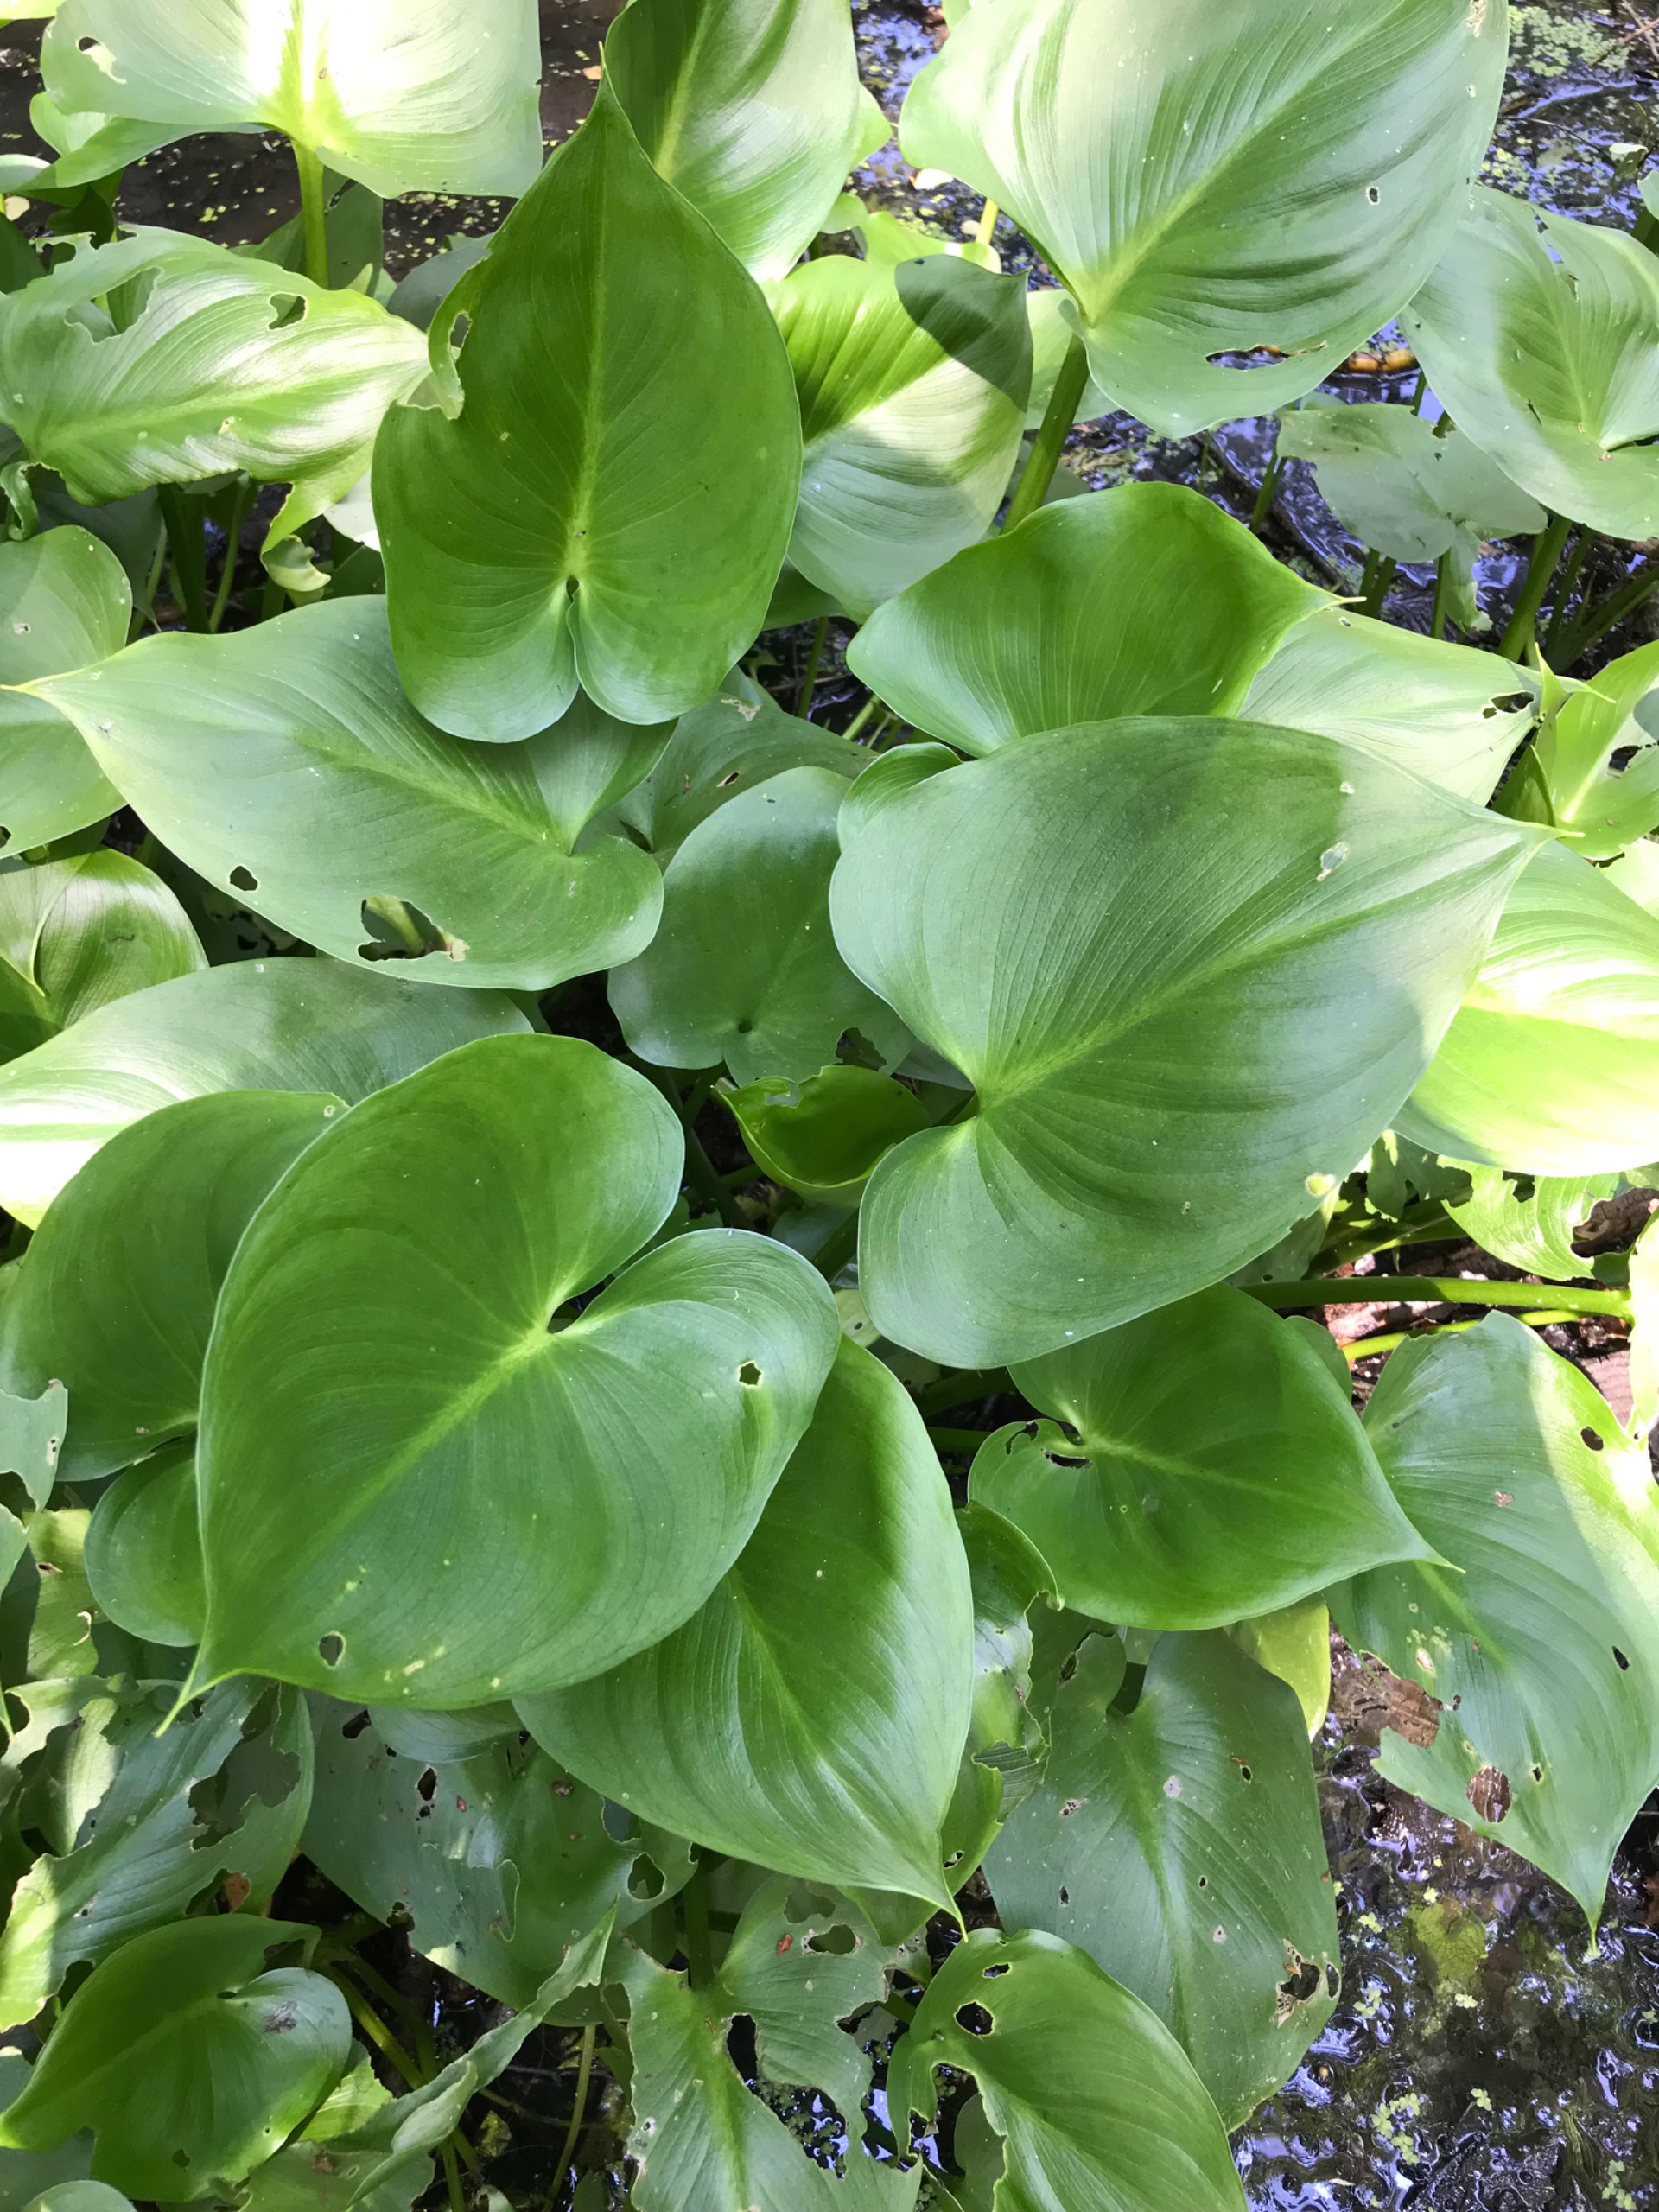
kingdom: Plantae
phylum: Tracheophyta
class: Liliopsida
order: Alismatales
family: Araceae
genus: Calla
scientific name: Calla palustris
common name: Kærmysse
